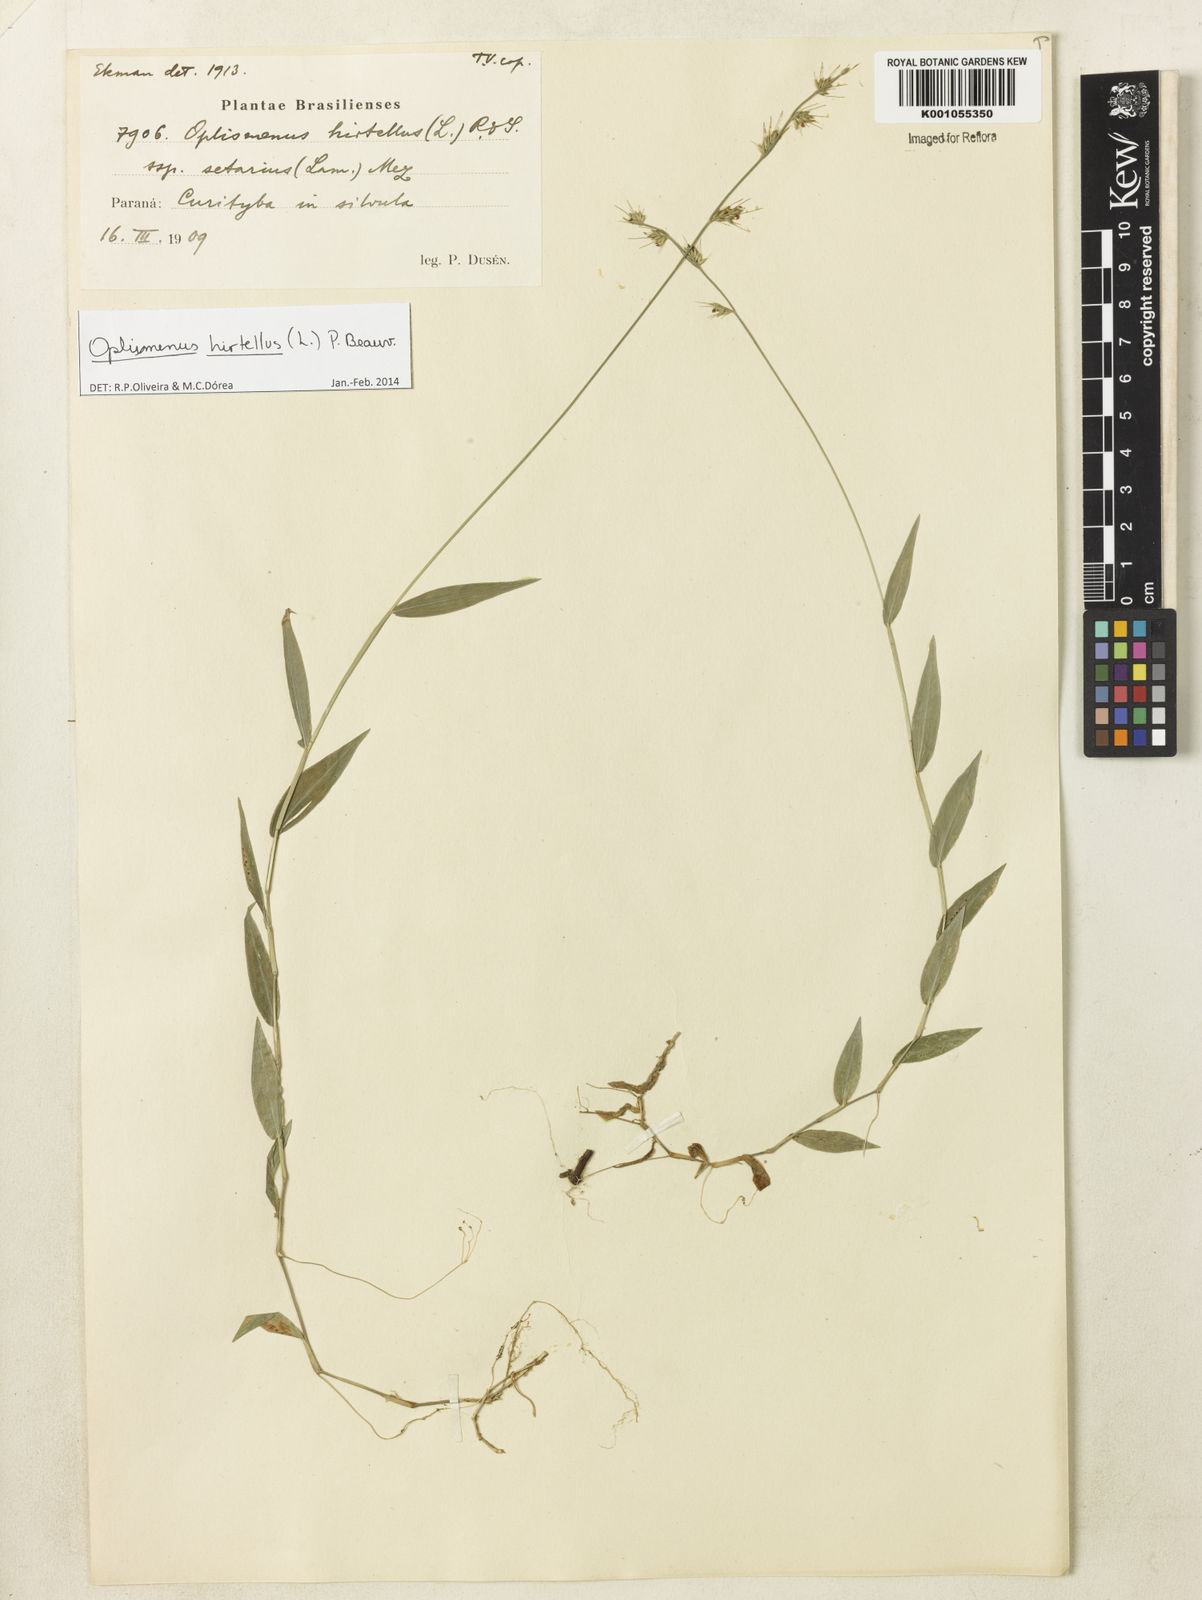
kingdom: Plantae
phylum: Tracheophyta
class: Liliopsida
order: Poales
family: Poaceae
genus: Oplismenus
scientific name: Oplismenus hirtellus
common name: Basketgrass
